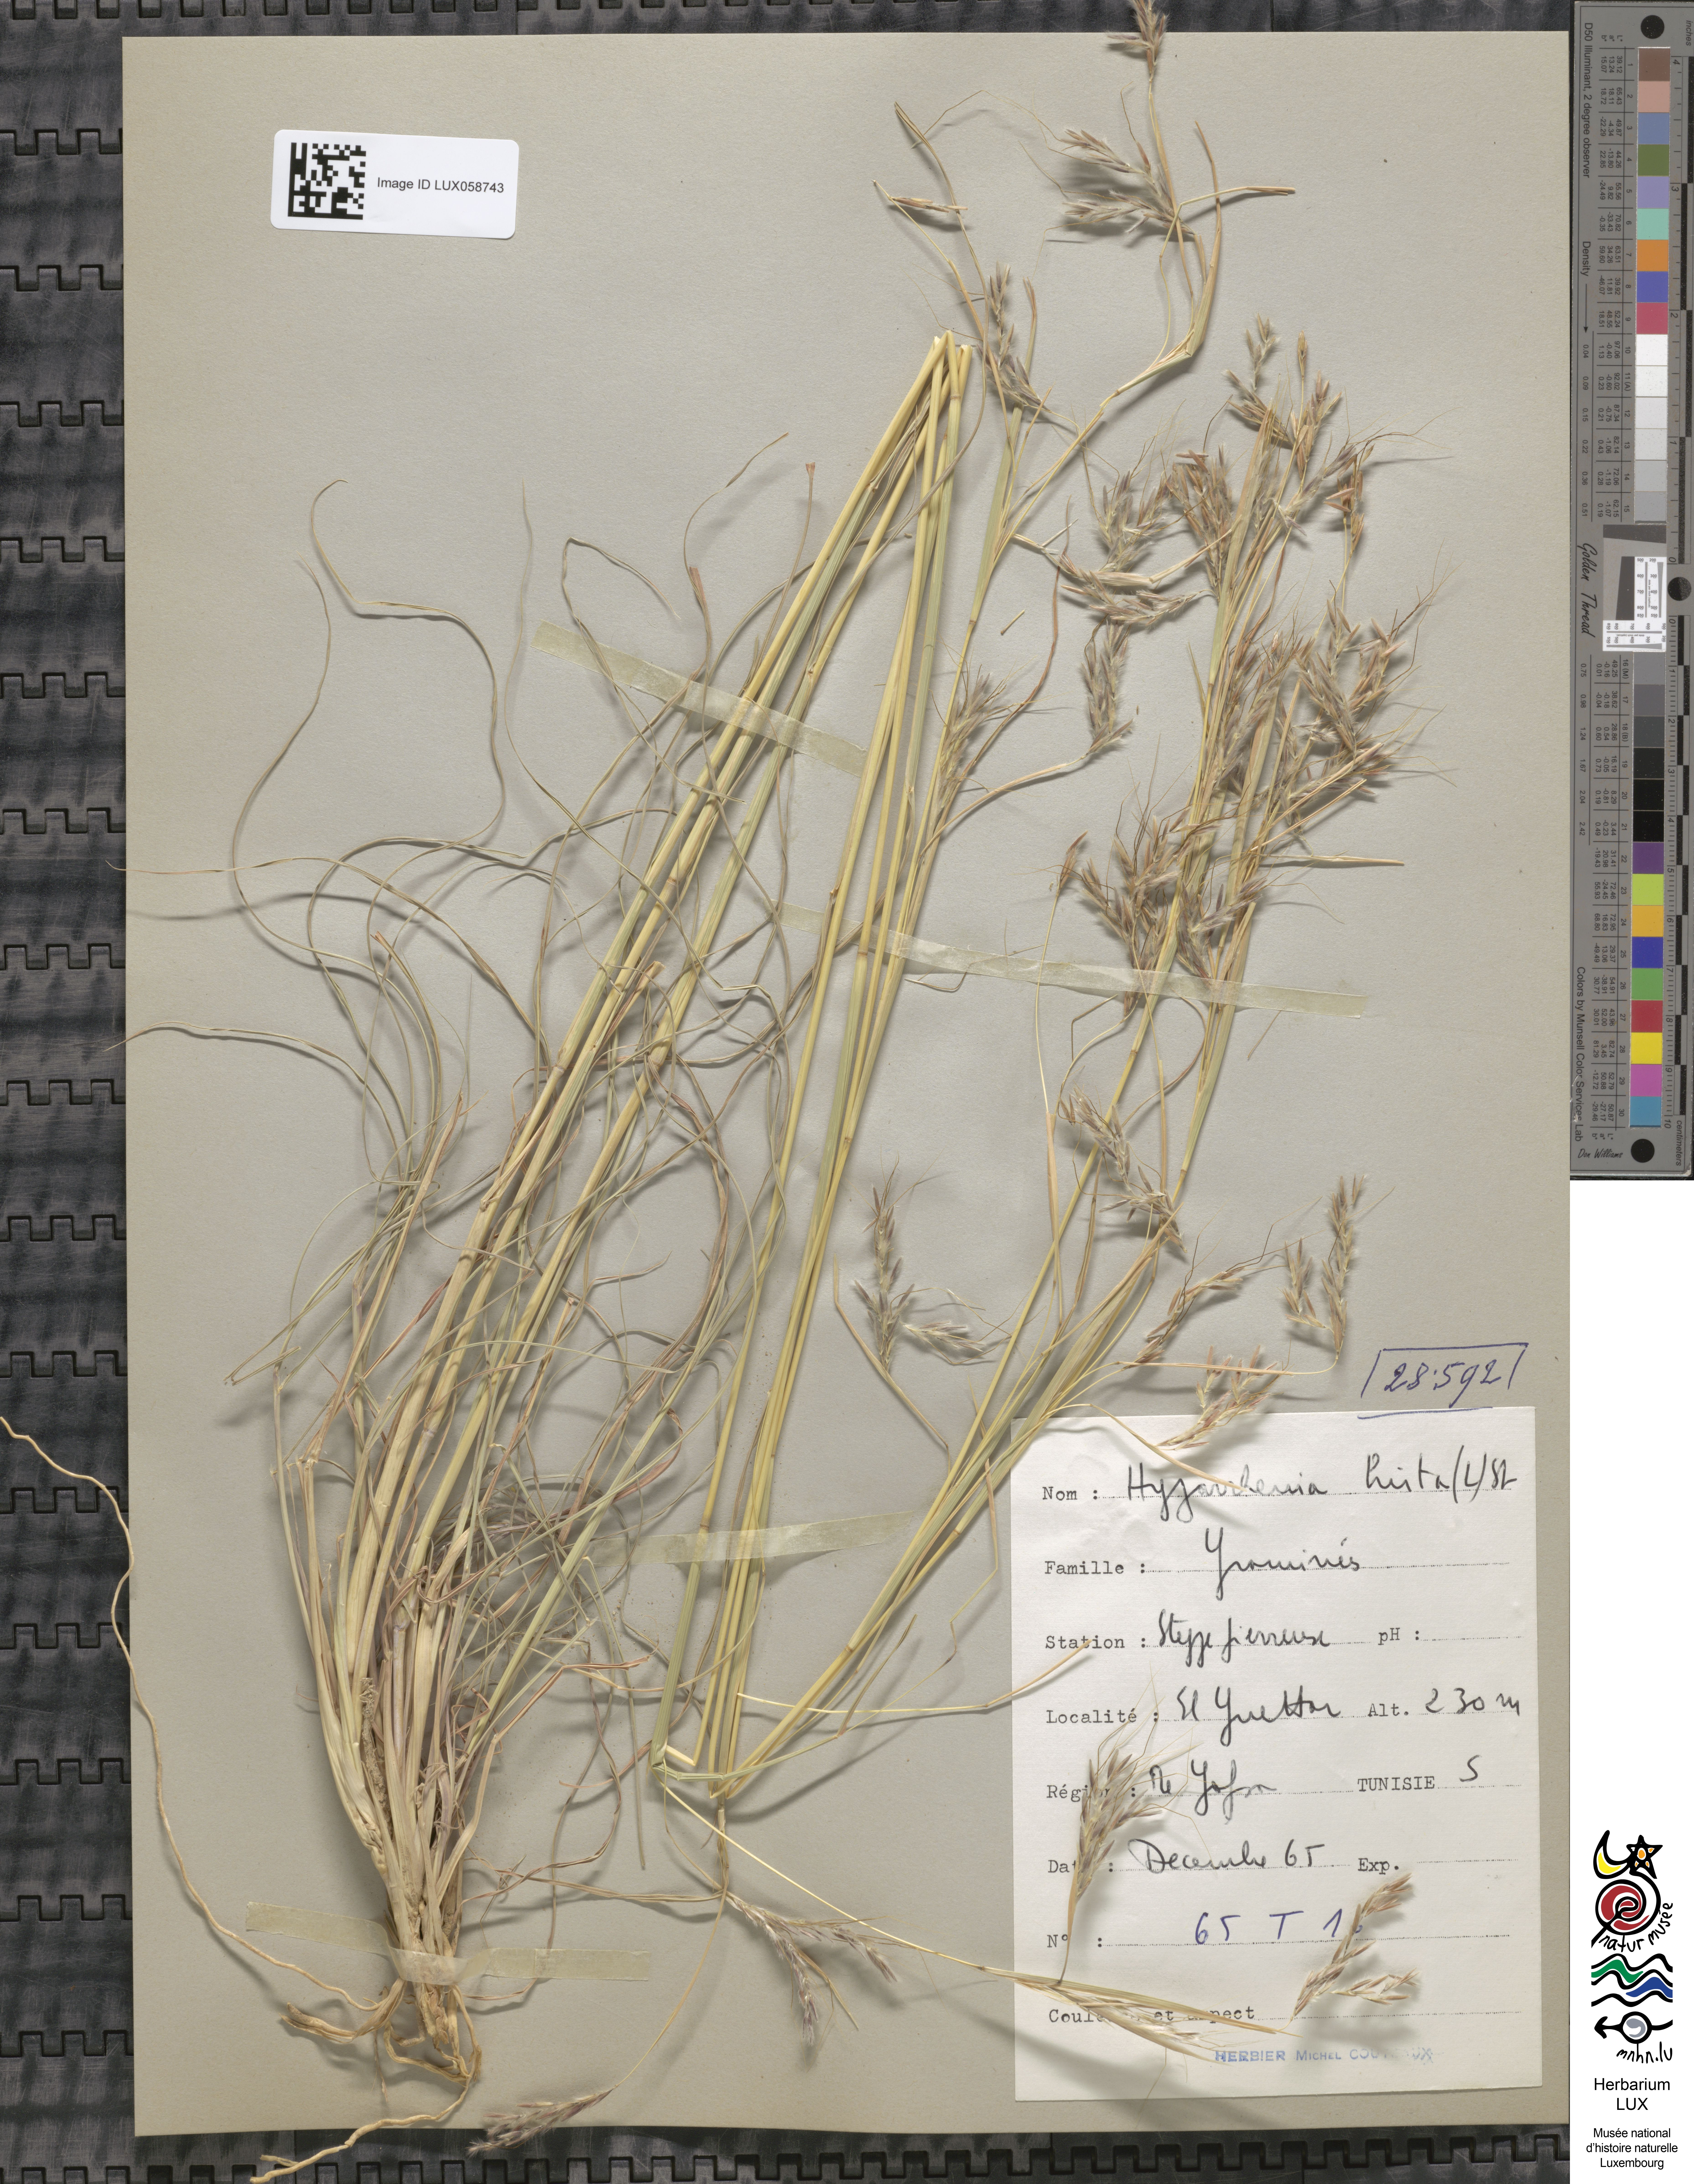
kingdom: Plantae
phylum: Tracheophyta
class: Liliopsida
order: Poales
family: Poaceae
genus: Hyparrhenia
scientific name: Hyparrhenia hirta
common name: Thatching grass
